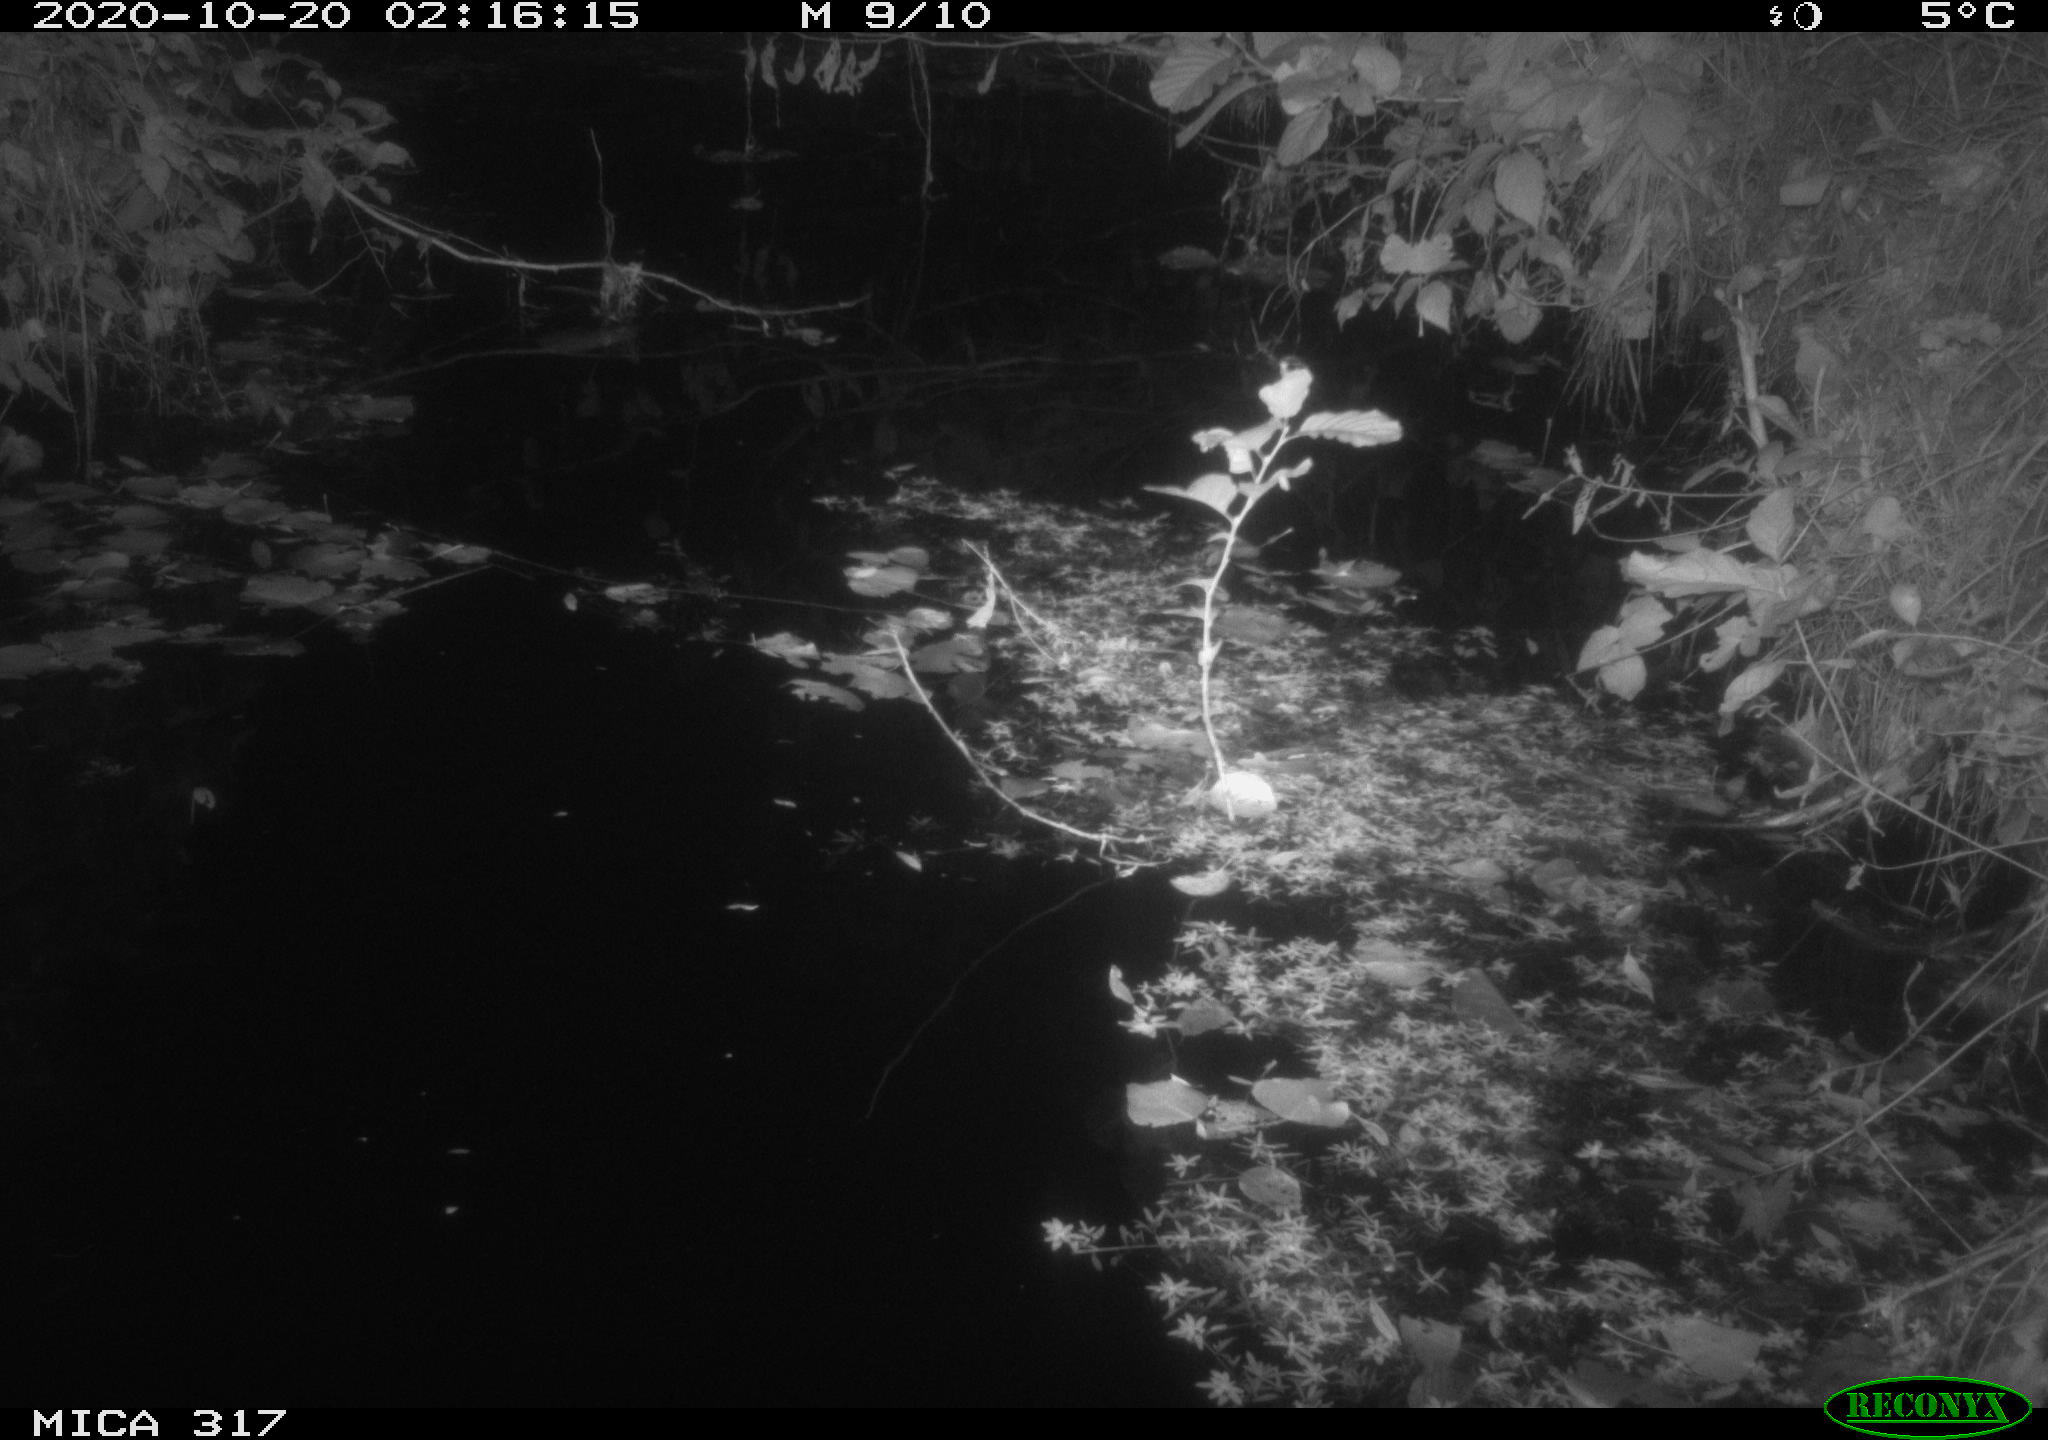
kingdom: Animalia
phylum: Chordata
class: Mammalia
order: Rodentia
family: Muridae
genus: Rattus
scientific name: Rattus norvegicus
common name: Brown rat
